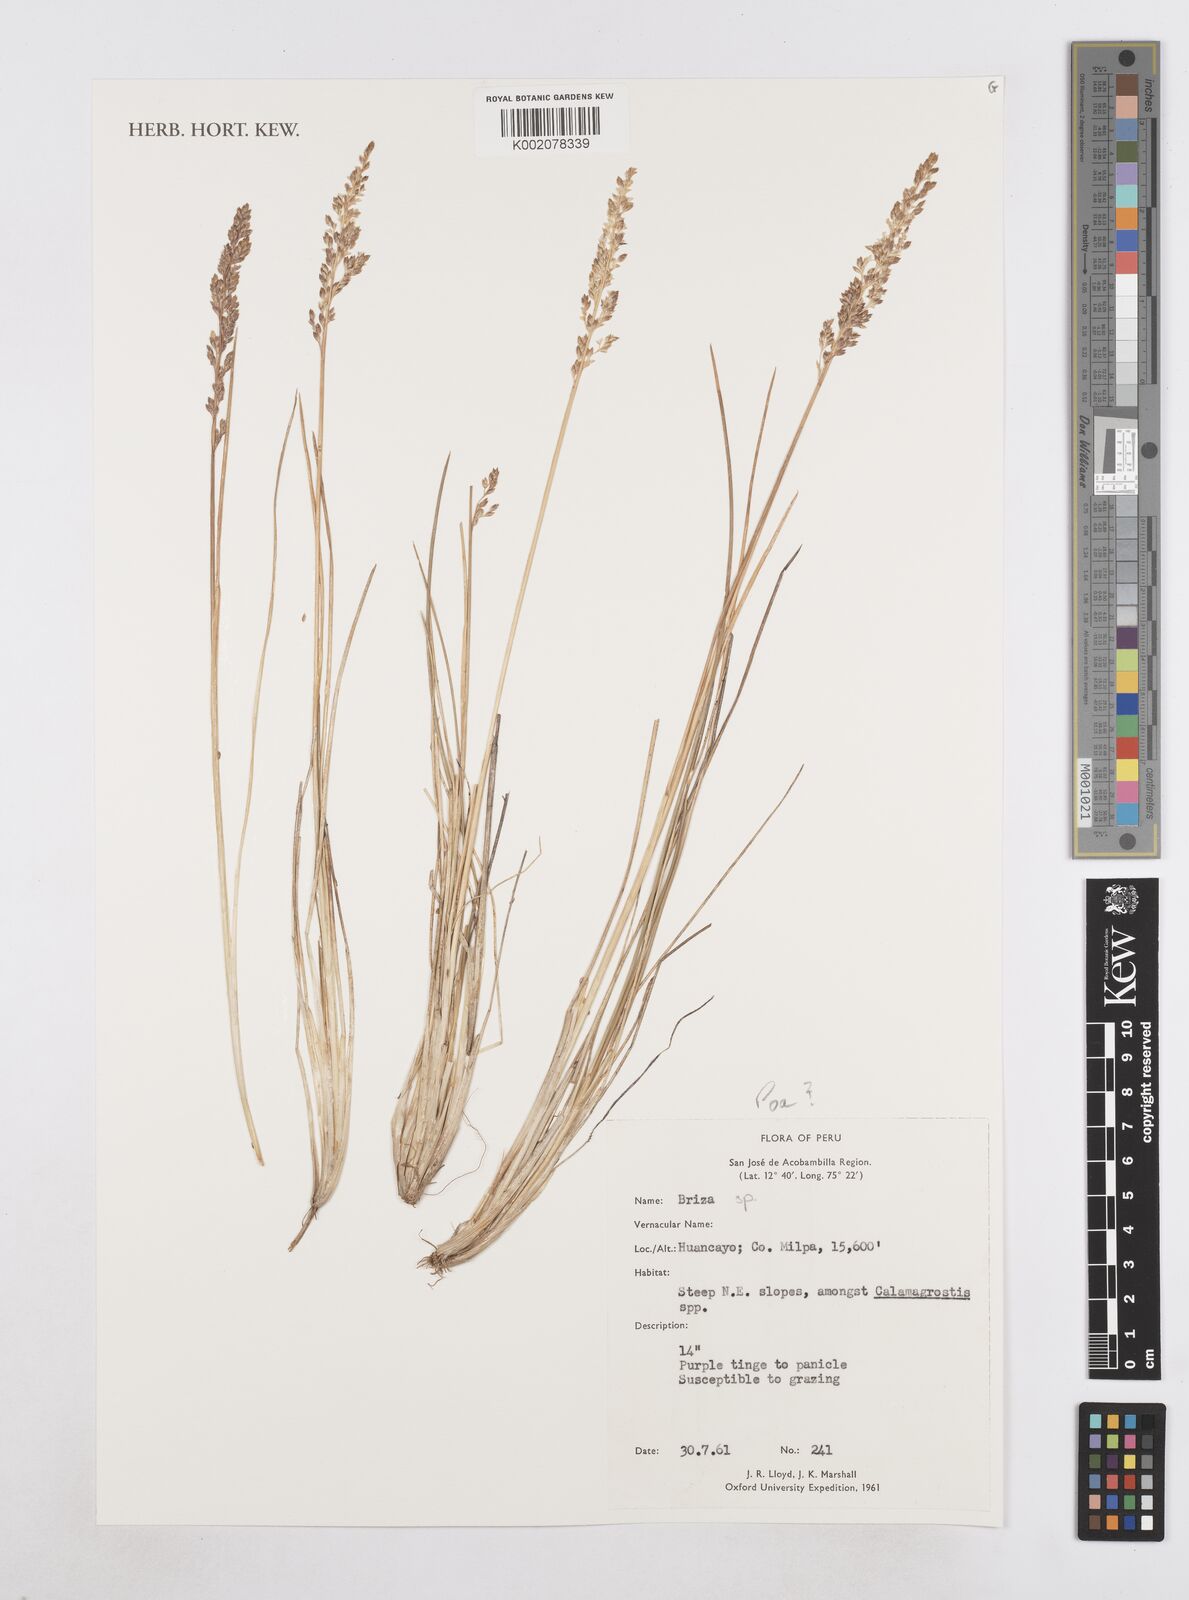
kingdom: Plantae
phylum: Tracheophyta
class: Liliopsida
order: Poales
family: Poaceae
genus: Poa
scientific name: Poa
